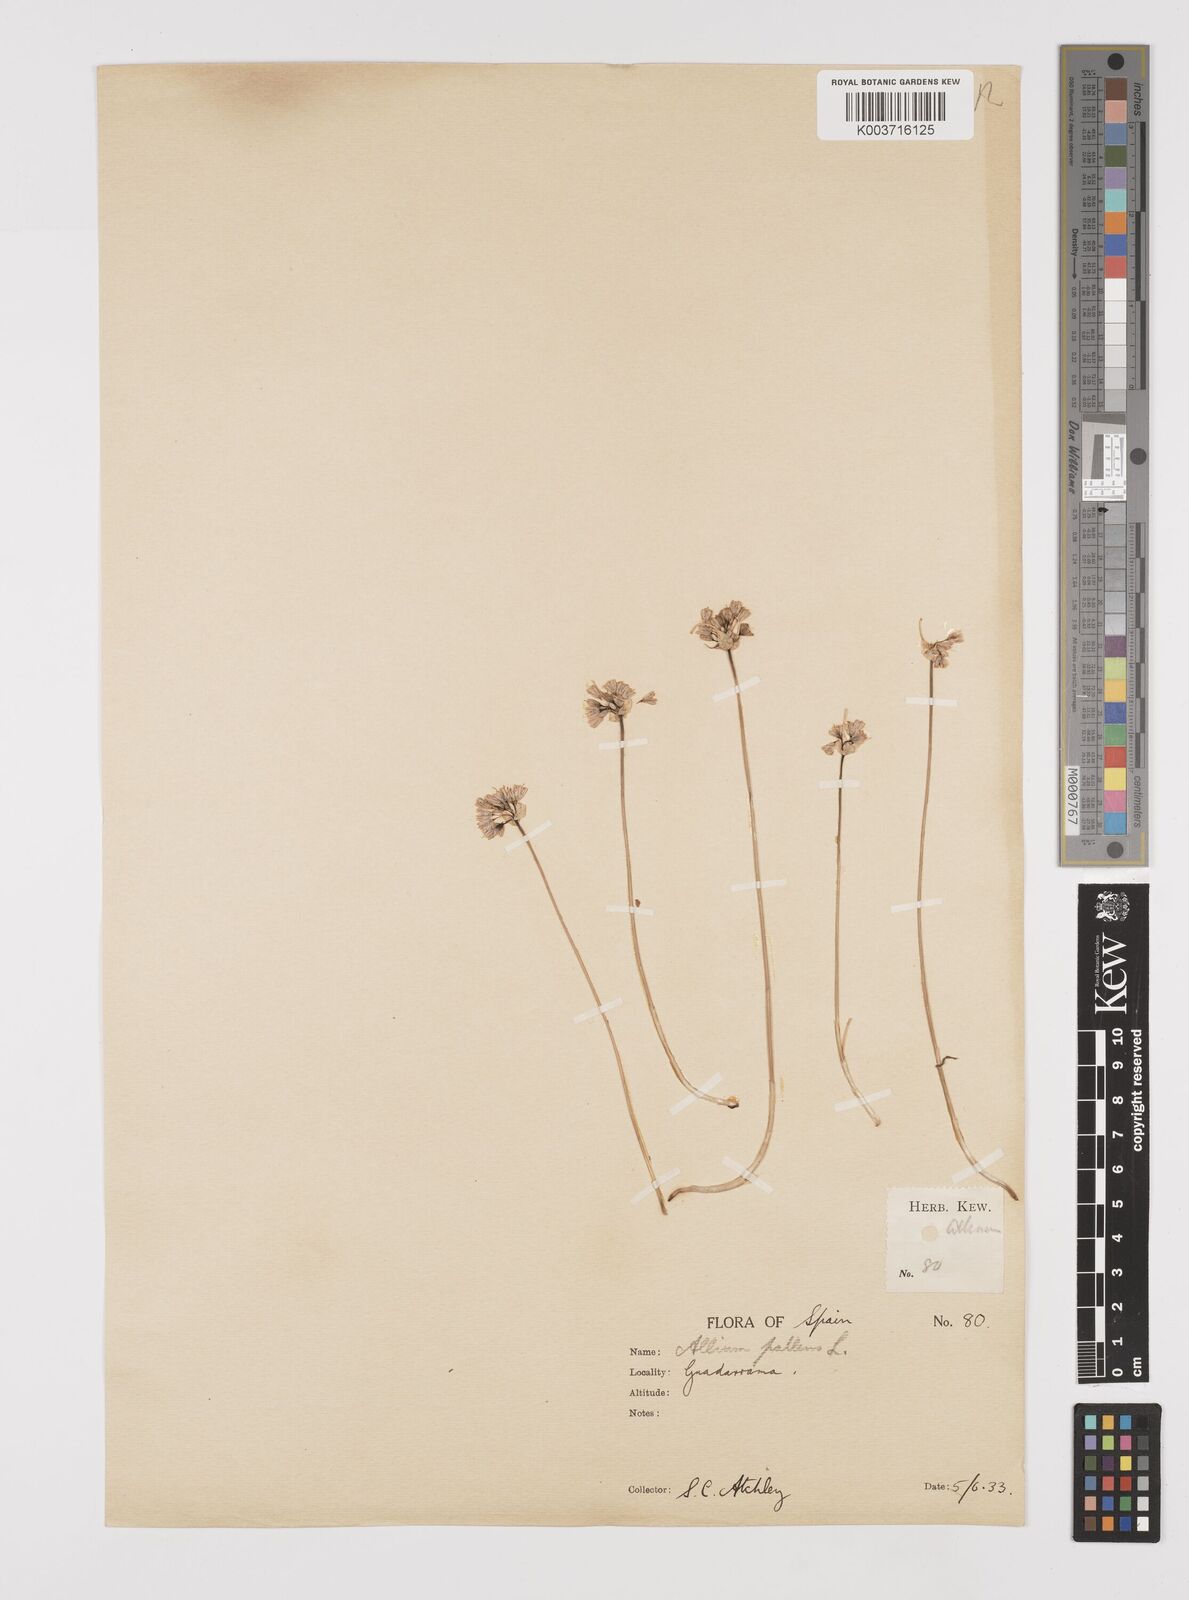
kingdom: Plantae
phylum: Tracheophyta
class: Liliopsida
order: Asparagales
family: Amaryllidaceae
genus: Allium
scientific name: Allium pallens
